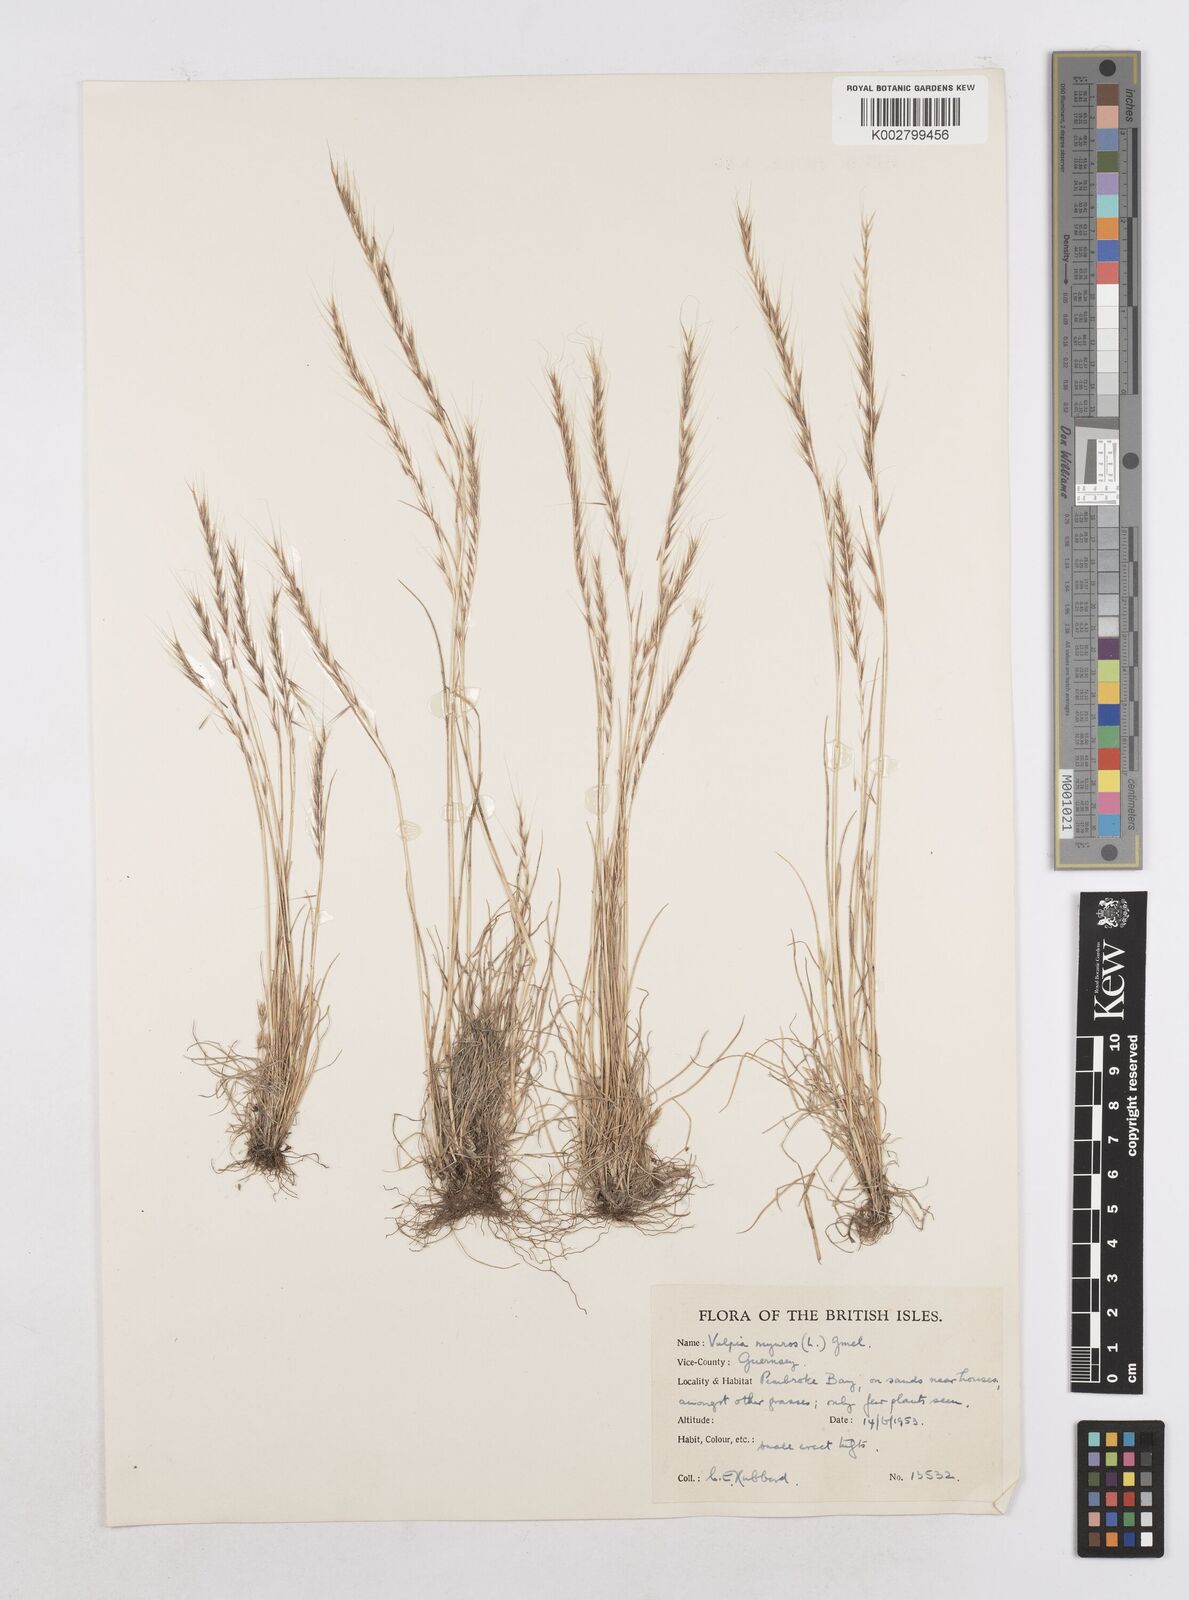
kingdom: Plantae
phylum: Tracheophyta
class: Liliopsida
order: Poales
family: Poaceae
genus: Festuca
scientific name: Festuca myuros
